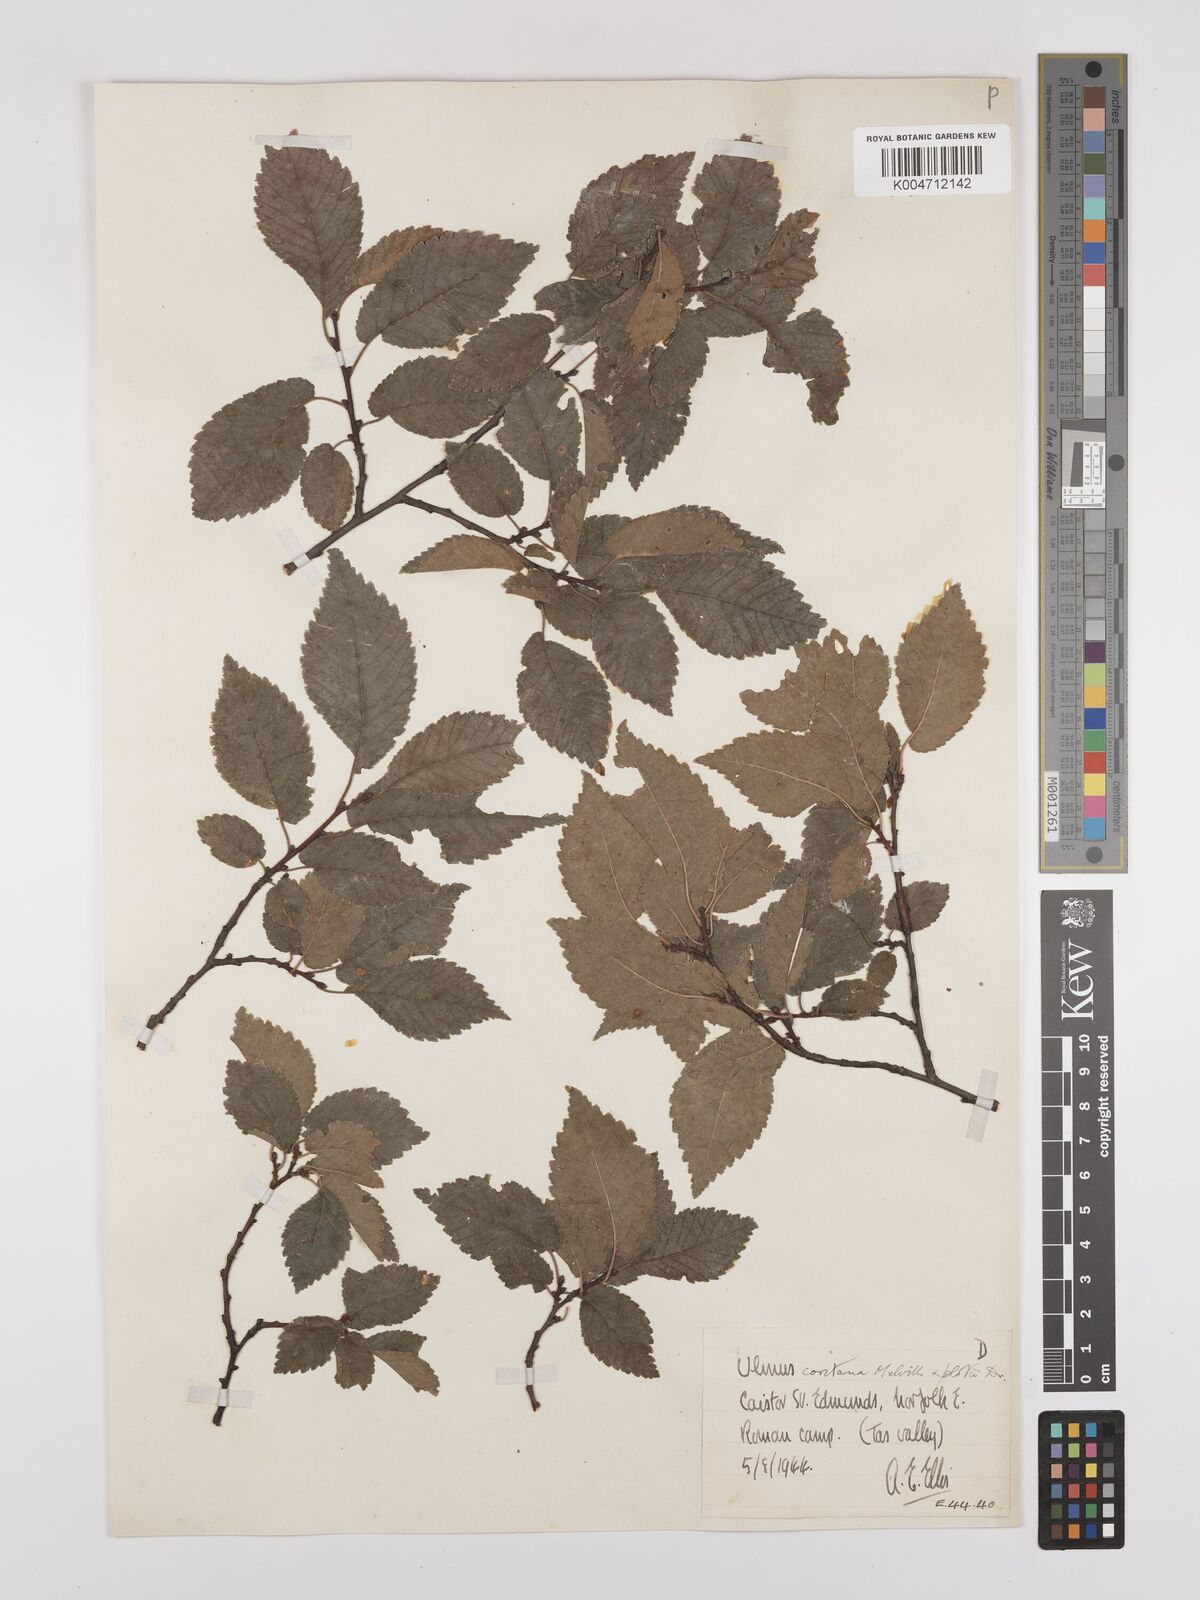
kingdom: Plantae
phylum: Tracheophyta
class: Magnoliopsida
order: Rosales
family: Ulmaceae
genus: Ulmus
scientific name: Ulmus minor
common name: Small-leaved elm
